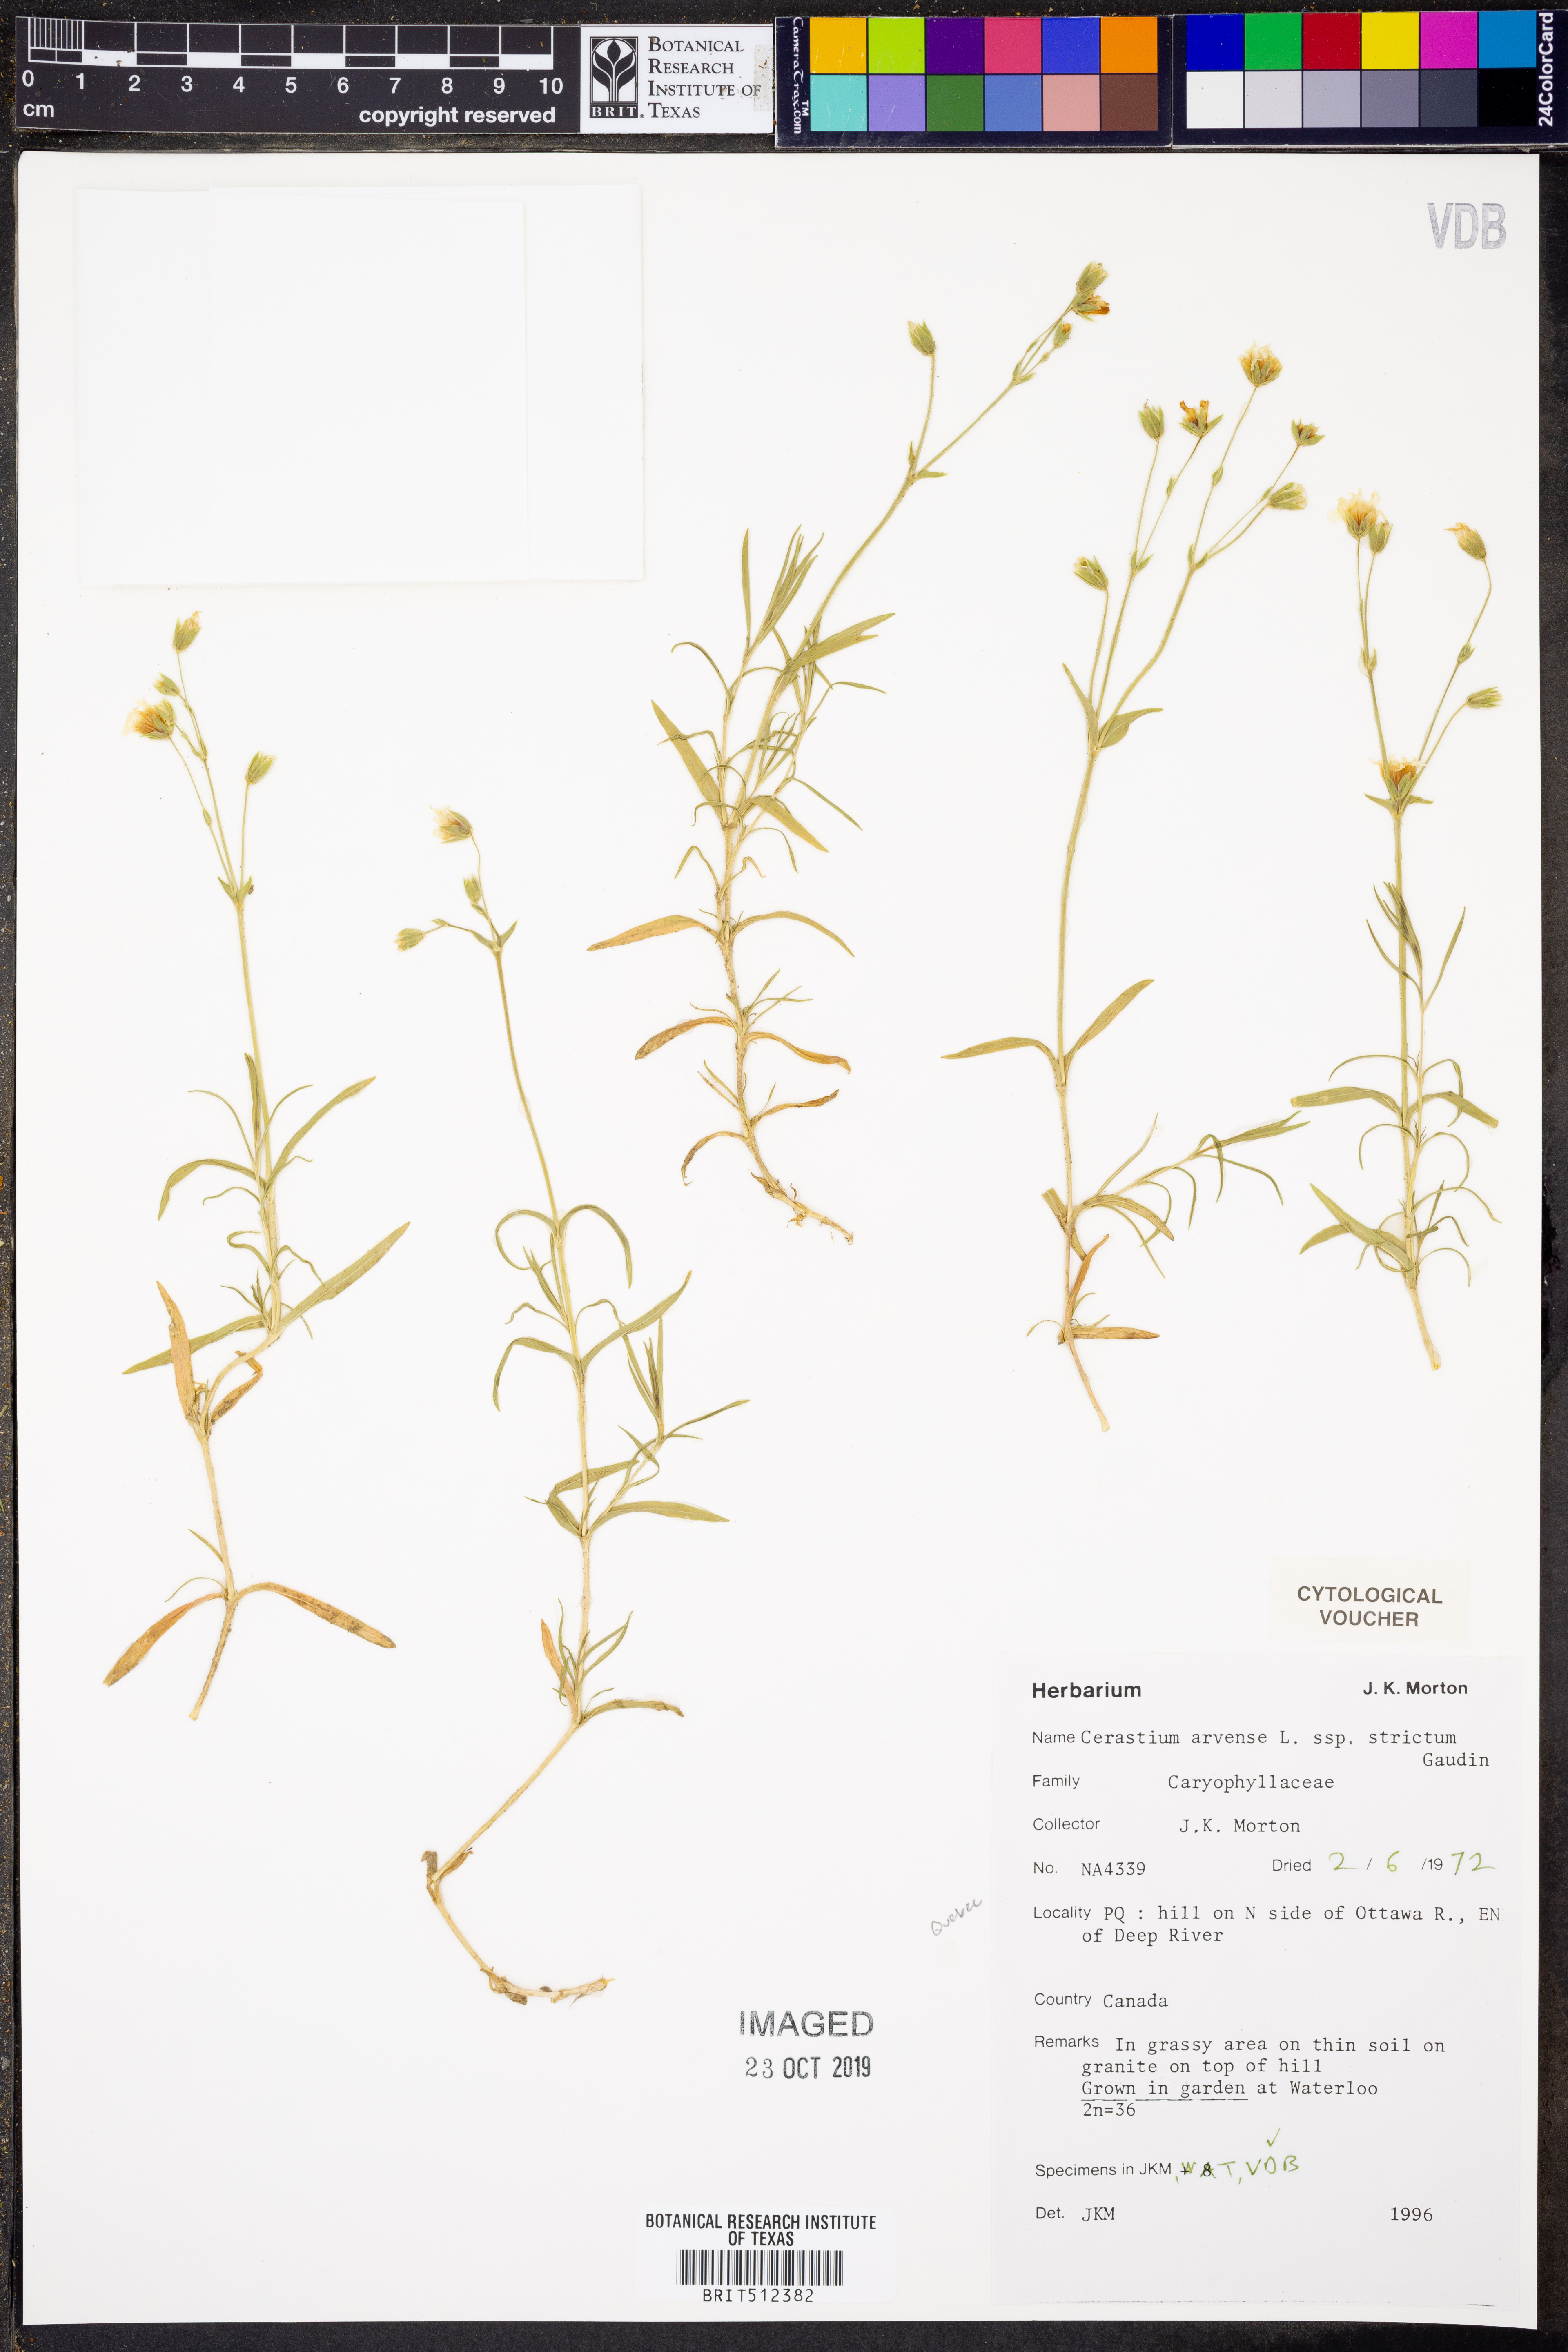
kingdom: Plantae
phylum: Tracheophyta
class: Magnoliopsida
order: Caryophyllales
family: Caryophyllaceae
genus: Cerastium
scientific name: Cerastium elongatum
